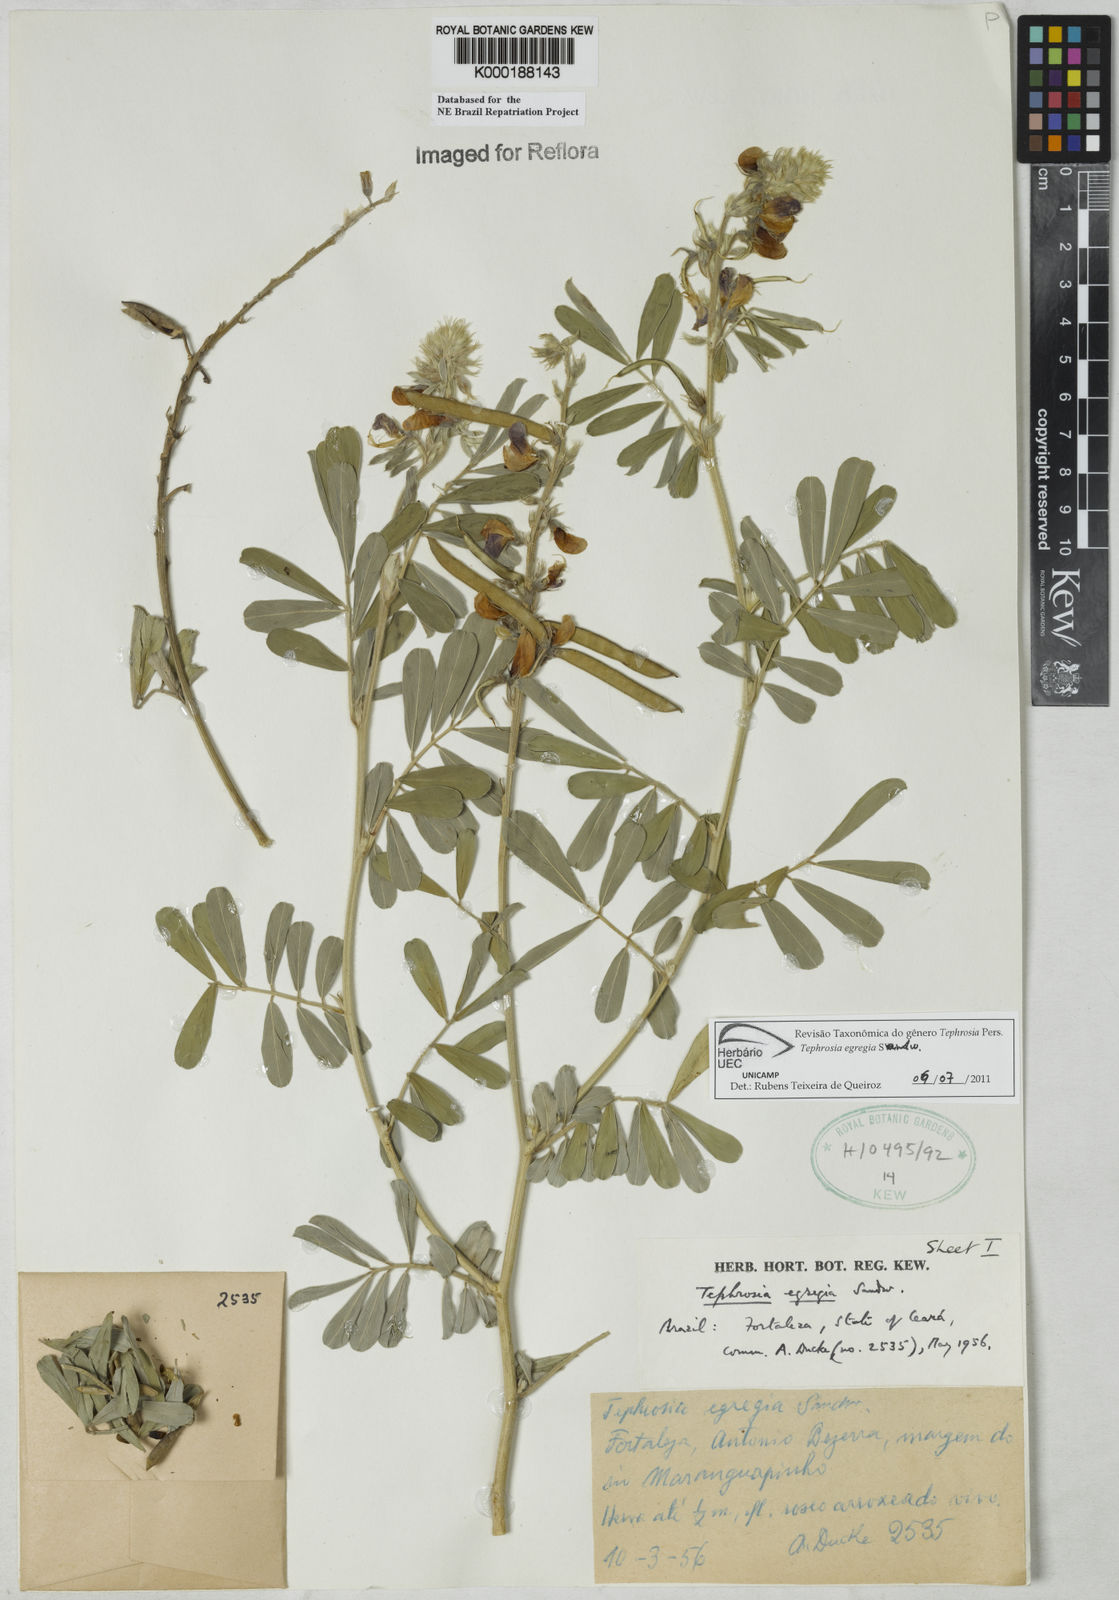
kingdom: Plantae
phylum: Tracheophyta
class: Magnoliopsida
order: Fabales
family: Fabaceae
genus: Tephrosia
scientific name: Tephrosia egregia
